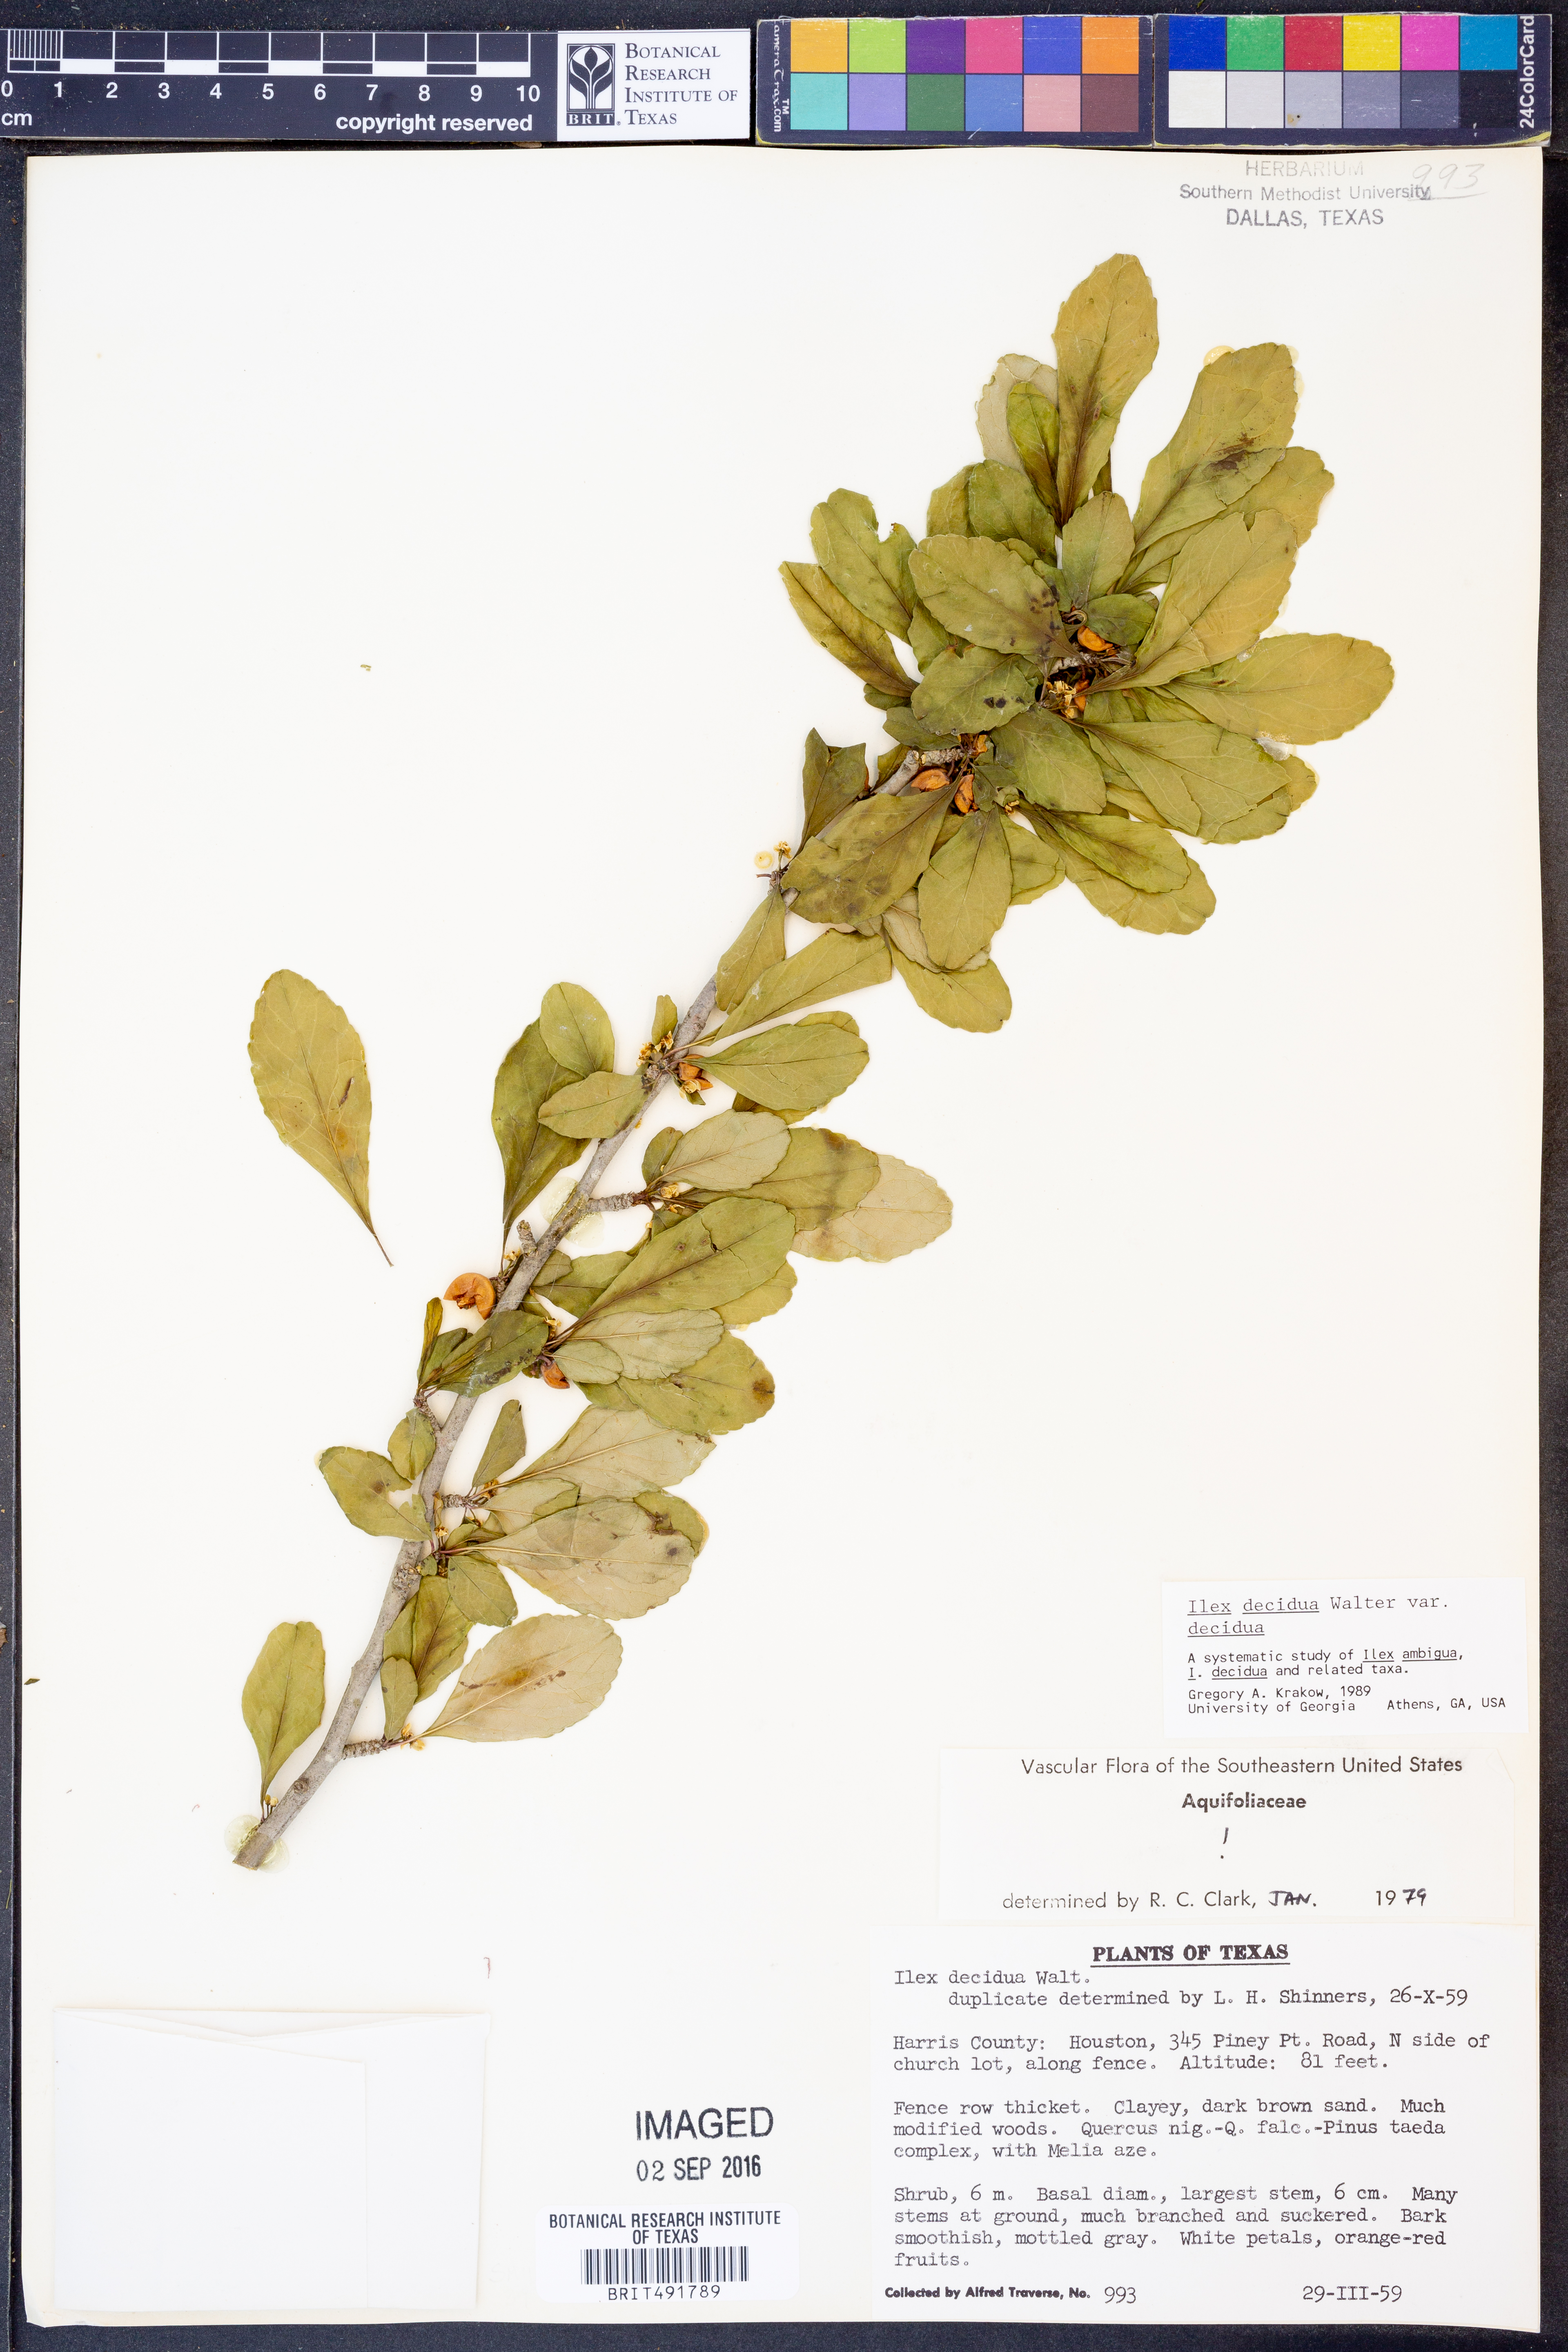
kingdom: Plantae
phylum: Tracheophyta
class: Magnoliopsida
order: Aquifoliales
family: Aquifoliaceae
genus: Ilex
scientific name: Ilex decidua
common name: Possum-haw
